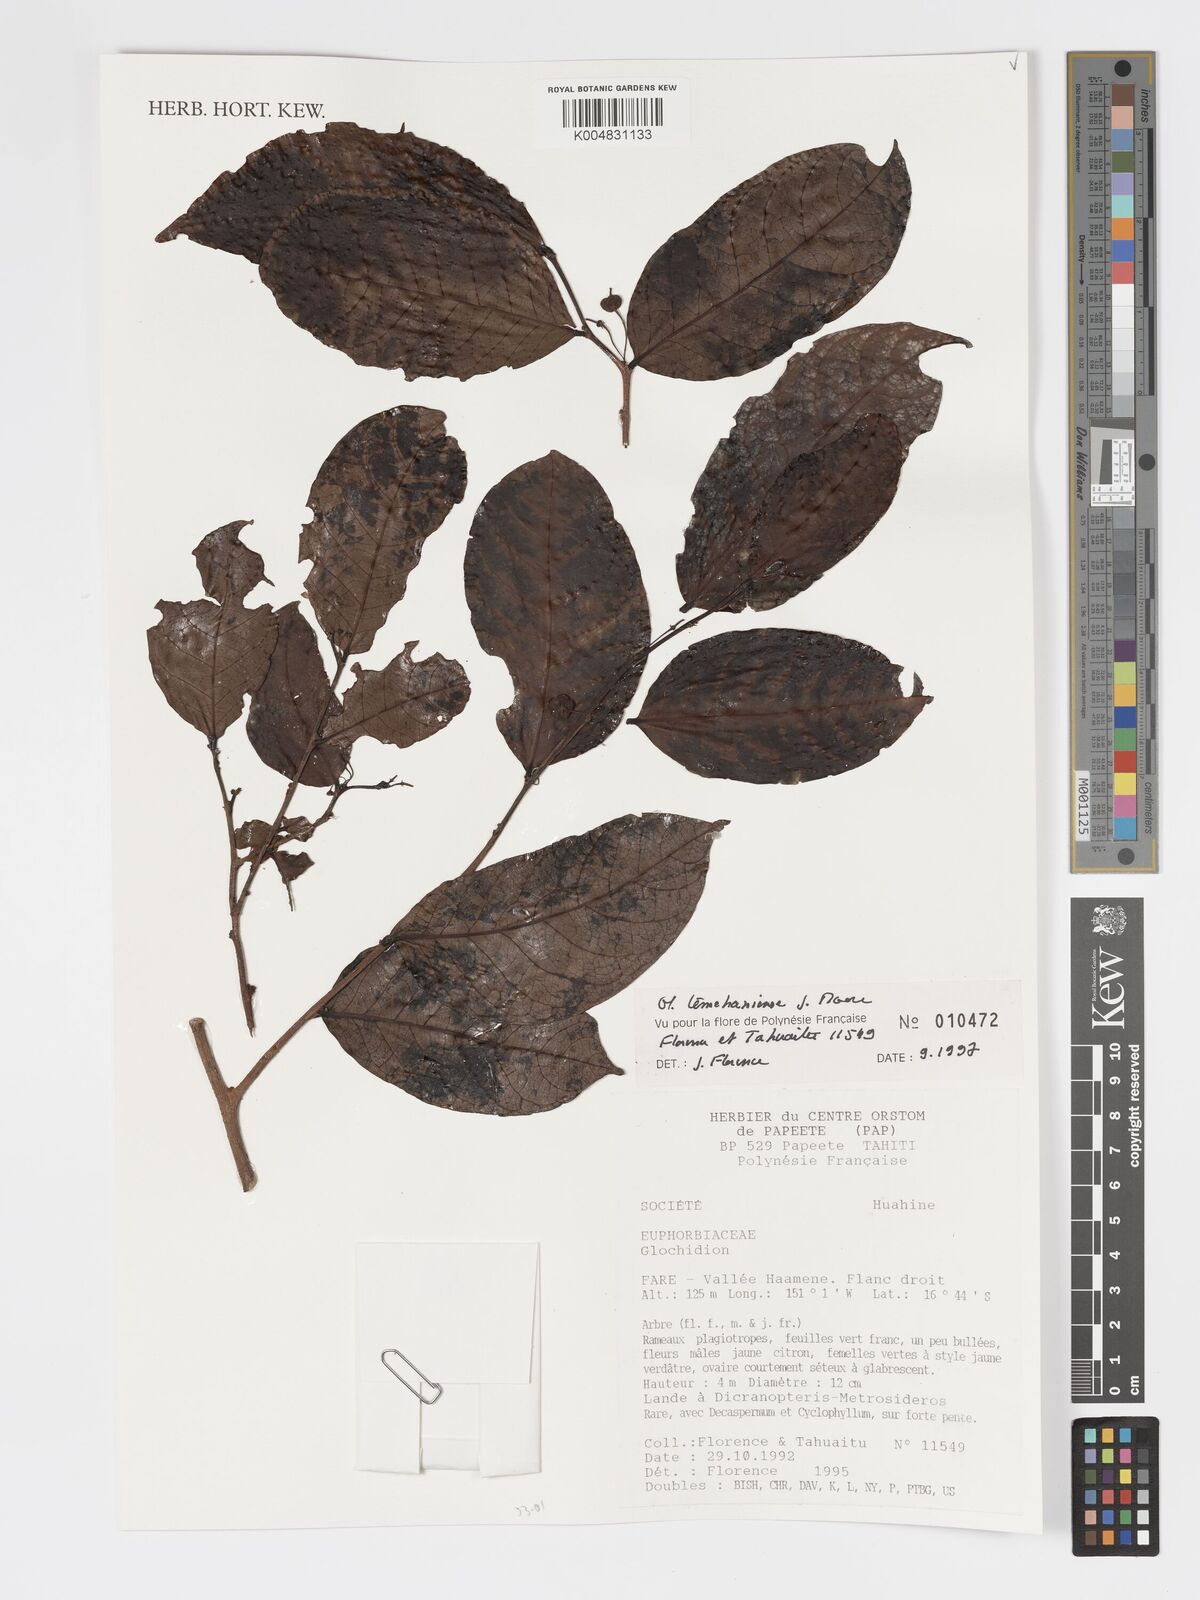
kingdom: Plantae
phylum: Tracheophyta
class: Magnoliopsida
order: Malpighiales
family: Phyllanthaceae
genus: Glochidion
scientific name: Glochidion temehaniense
